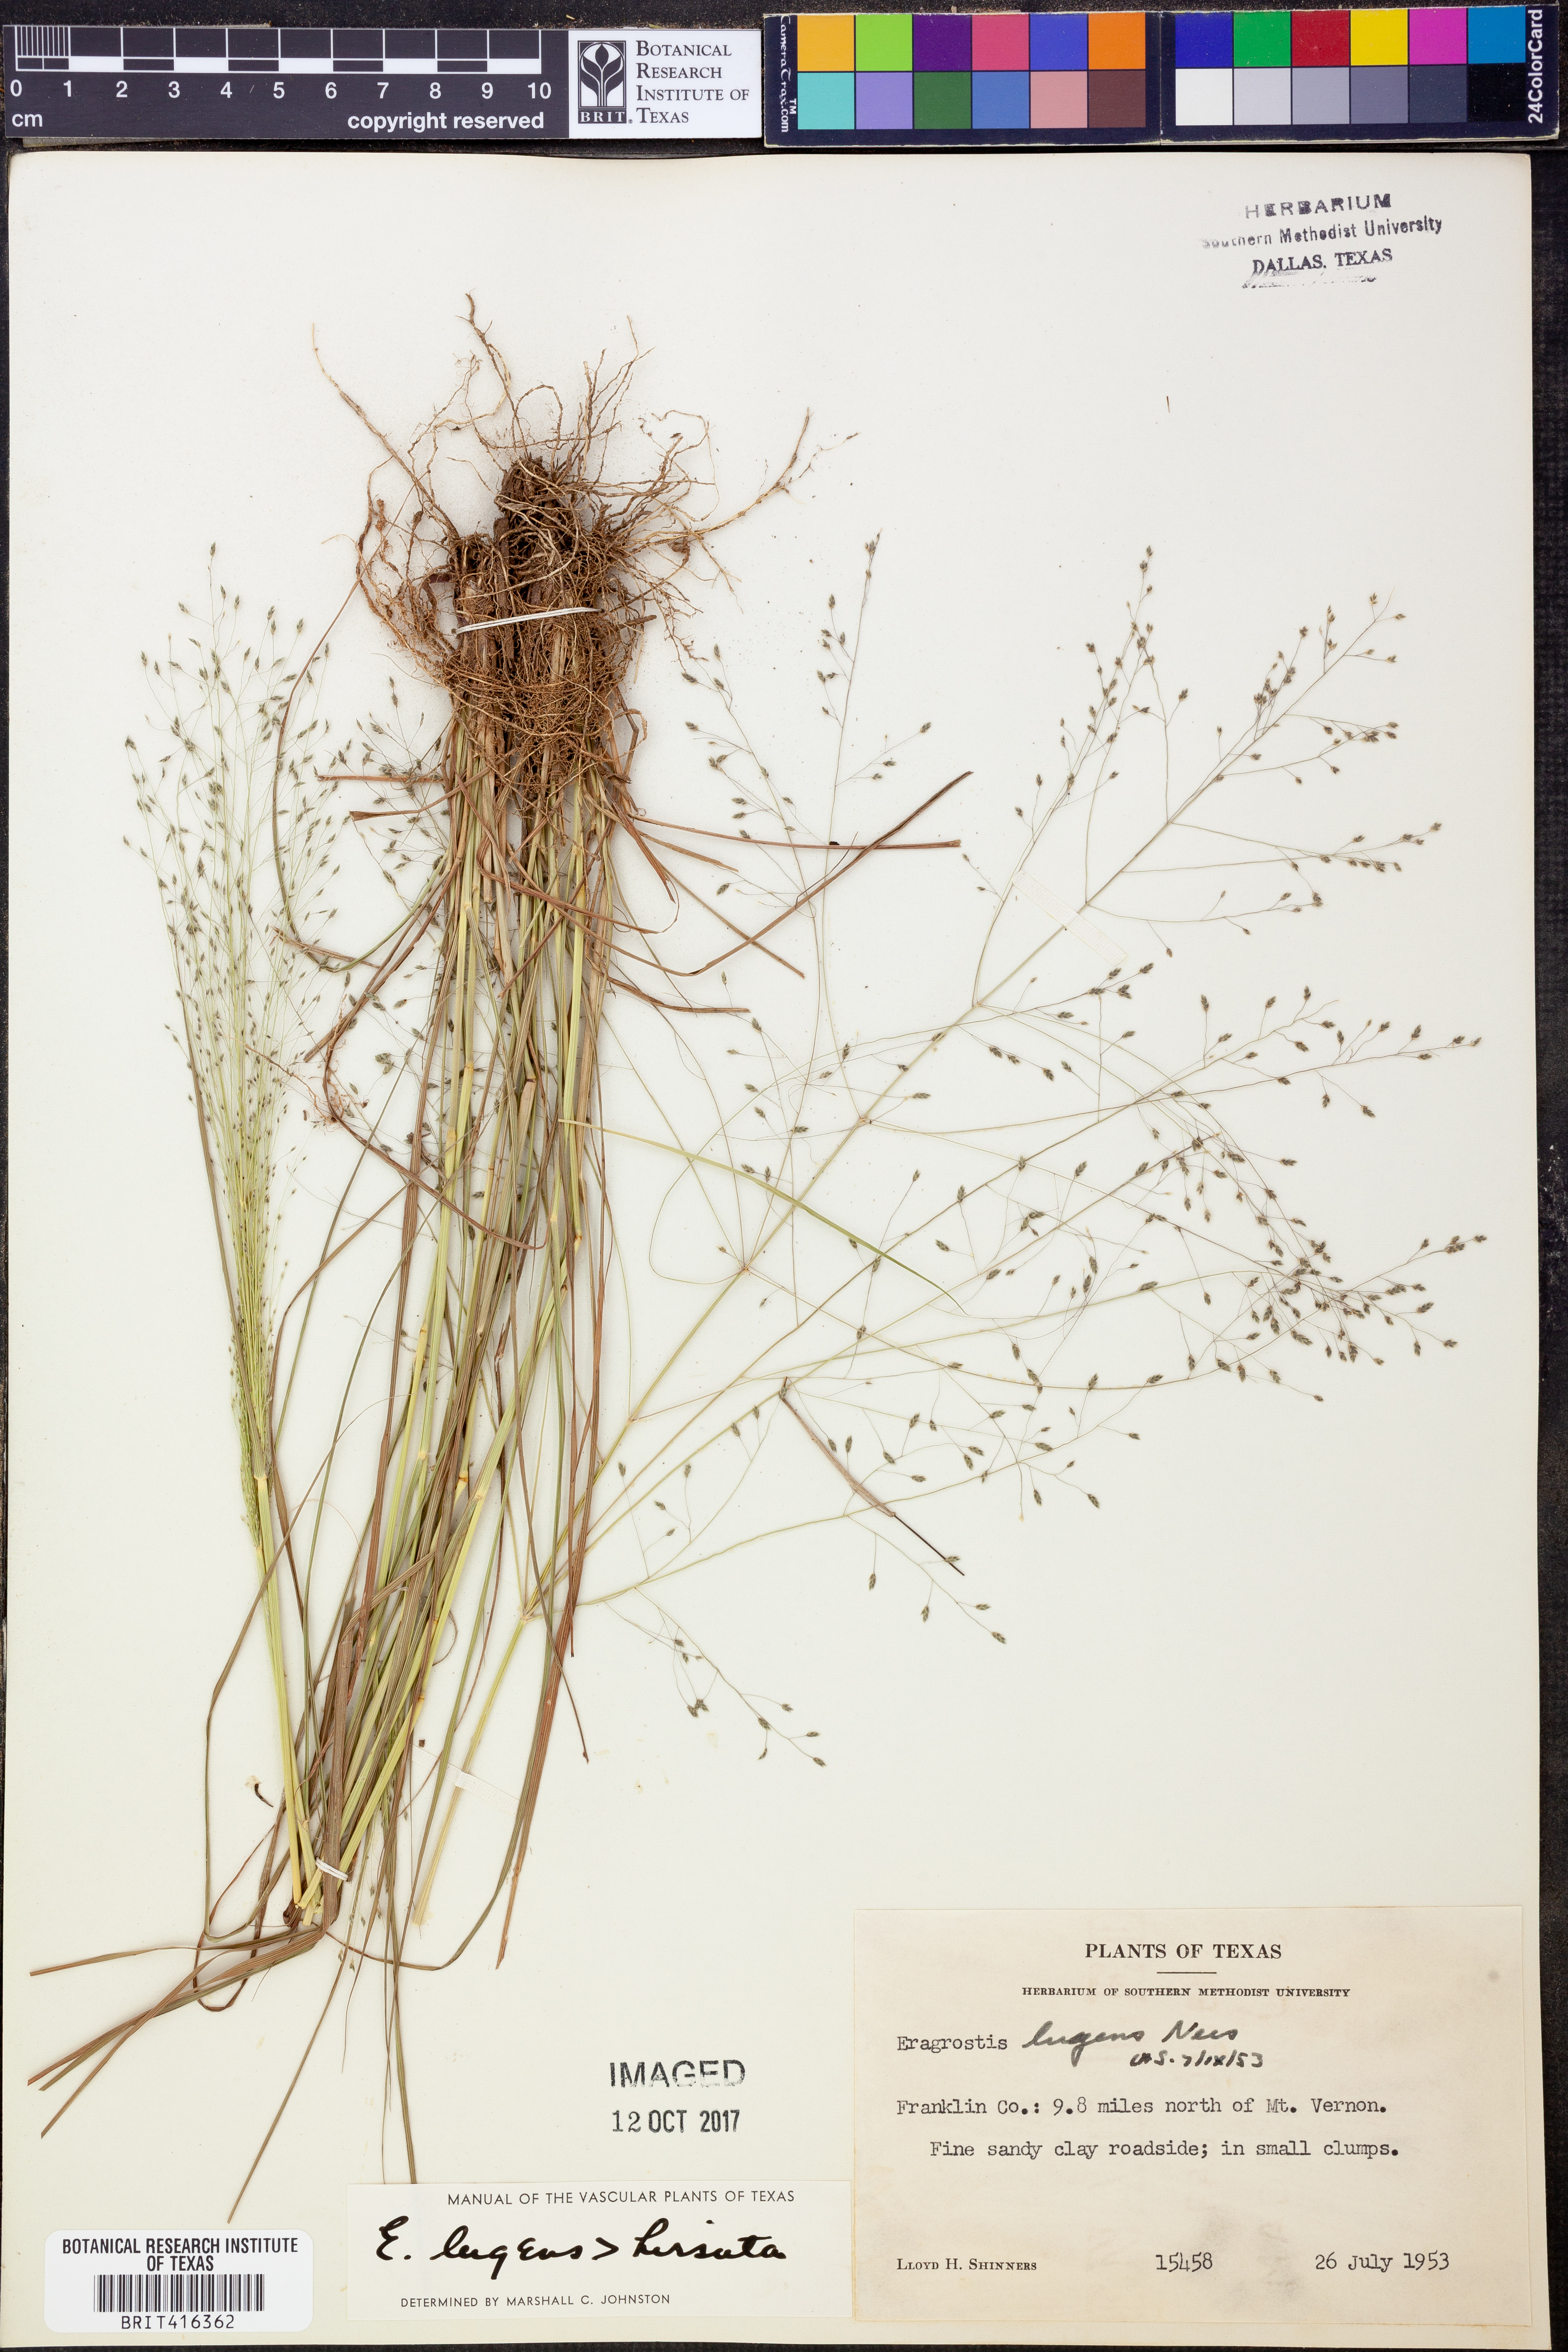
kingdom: Plantae
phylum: Tracheophyta
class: Liliopsida
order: Poales
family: Poaceae
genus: Eragrostis
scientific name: Eragrostis capillaris
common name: Hair-like lovegrass
